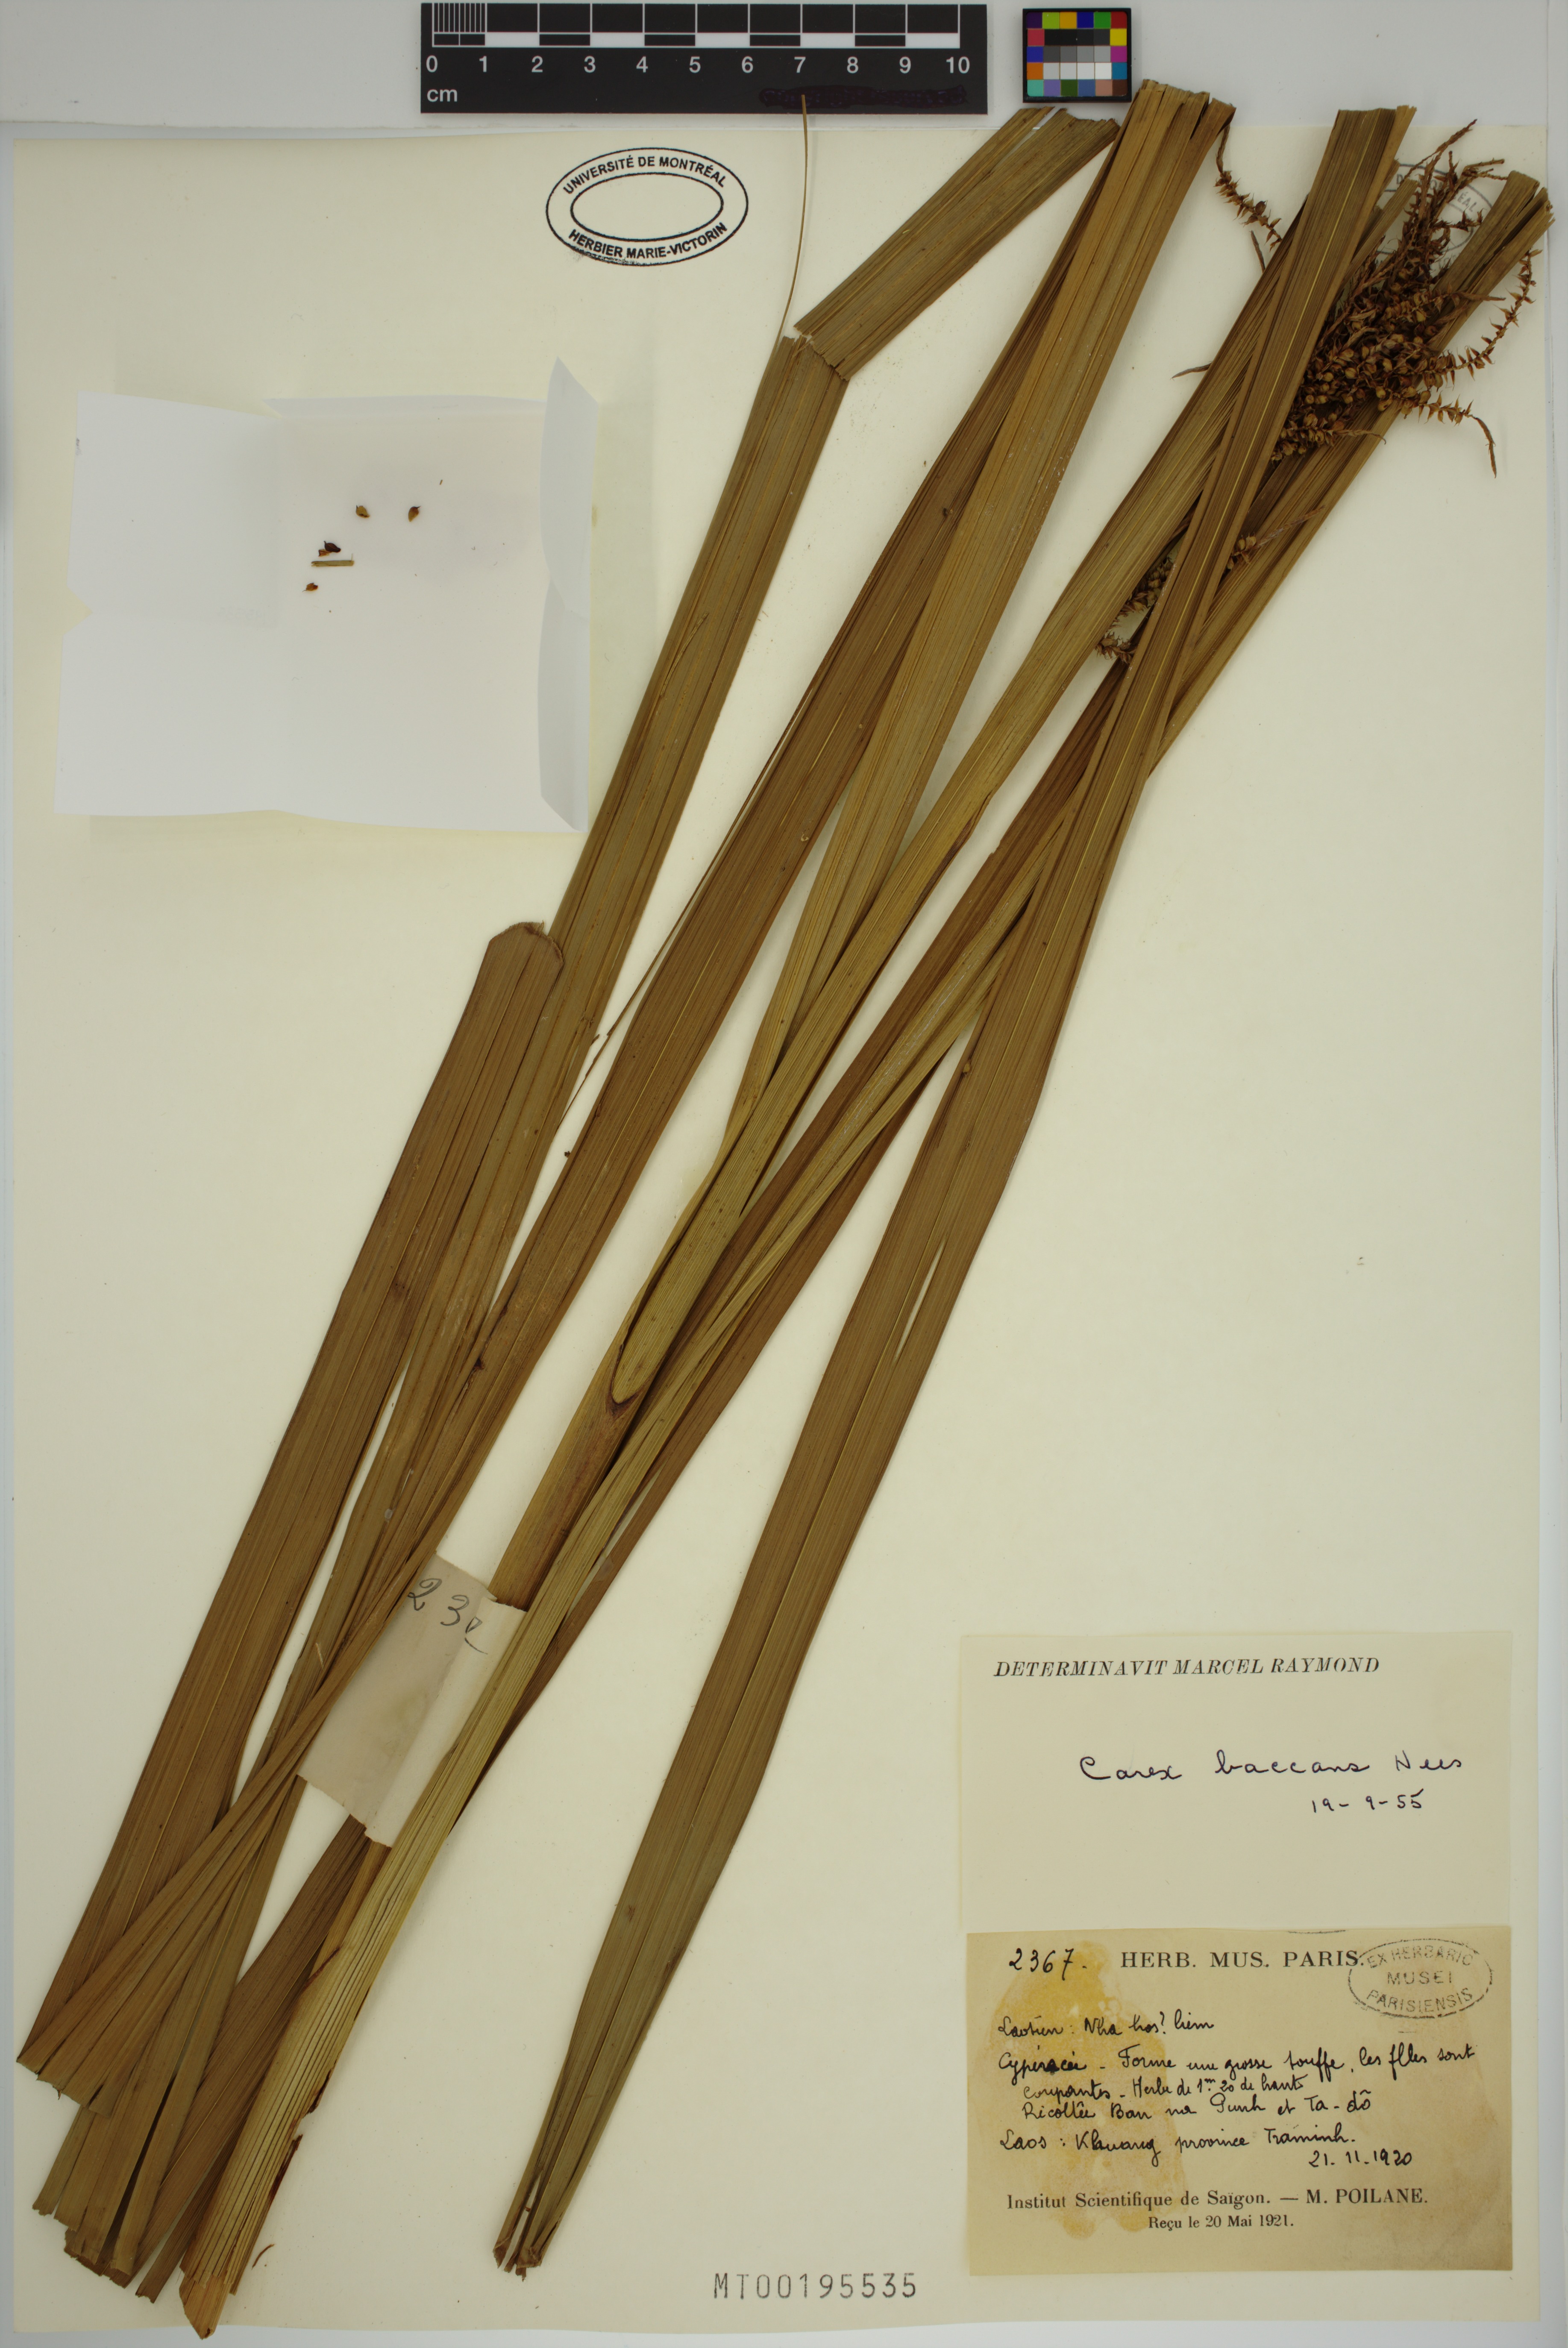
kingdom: Plantae
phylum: Tracheophyta
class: Liliopsida
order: Poales
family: Cyperaceae
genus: Carex
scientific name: Carex baccans
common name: Crimson seeded sedge
